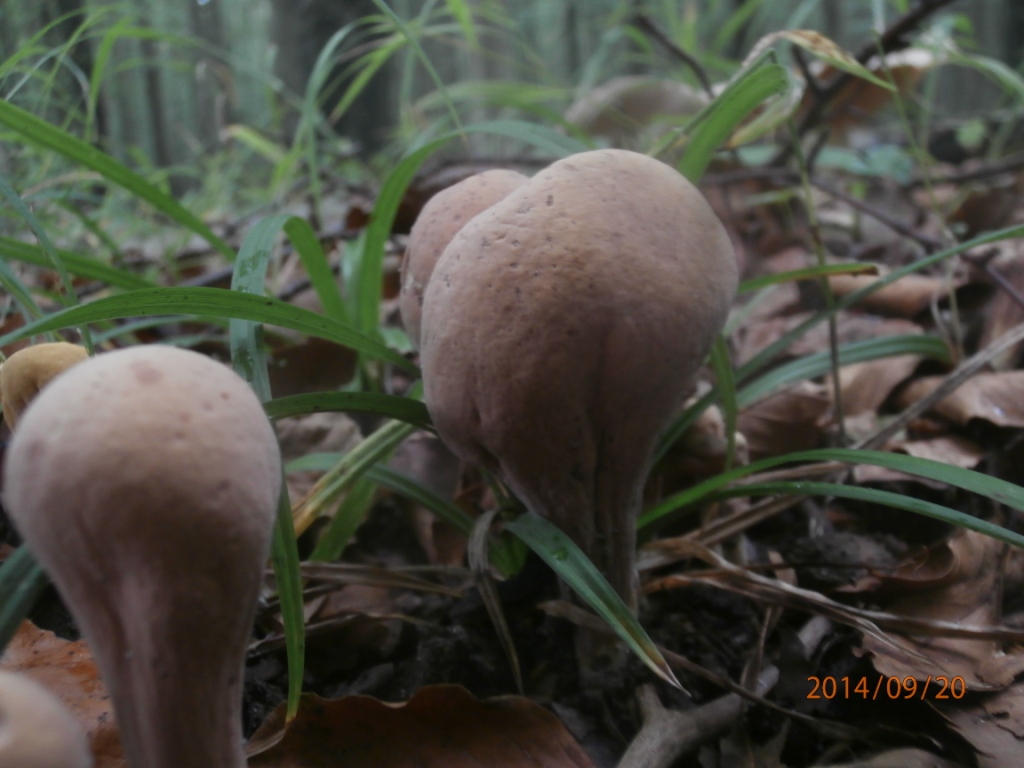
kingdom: Fungi
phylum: Basidiomycota
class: Agaricomycetes
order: Gomphales
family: Clavariadelphaceae
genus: Clavariadelphus
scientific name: Clavariadelphus pistillaris
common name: herkules-kæmpekølle
